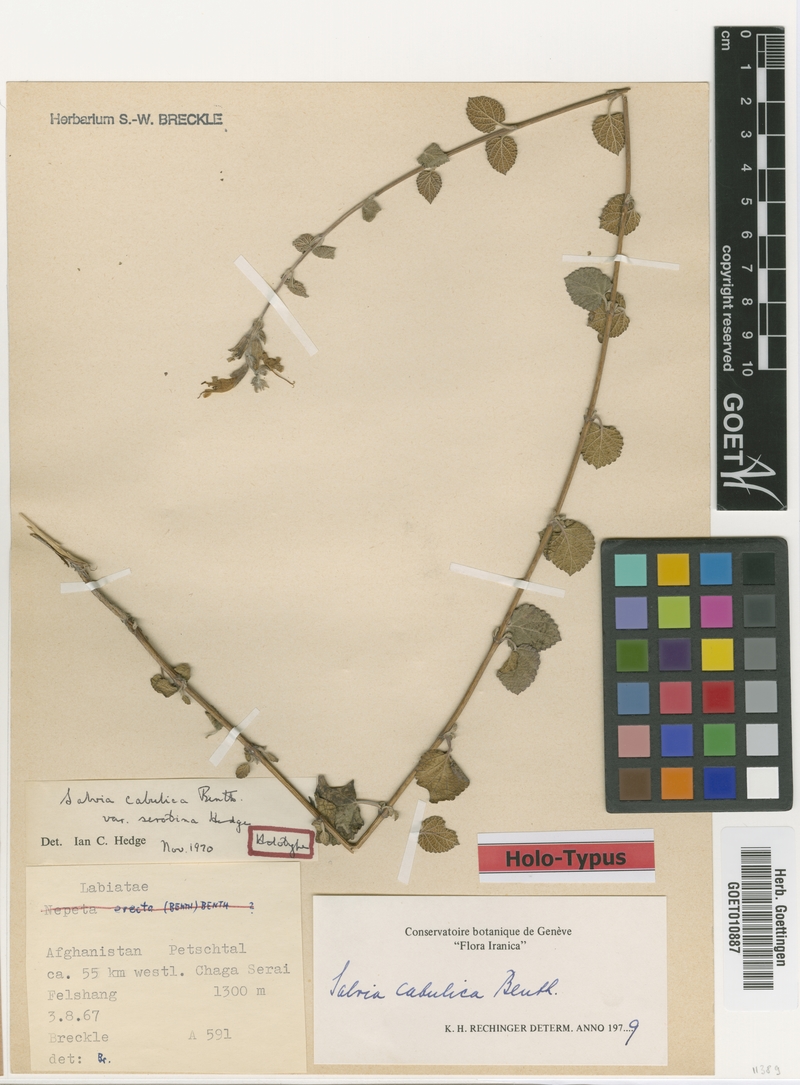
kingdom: Plantae
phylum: Tracheophyta
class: Magnoliopsida
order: Lamiales
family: Lamiaceae
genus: Salvia
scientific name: Salvia cabulica
